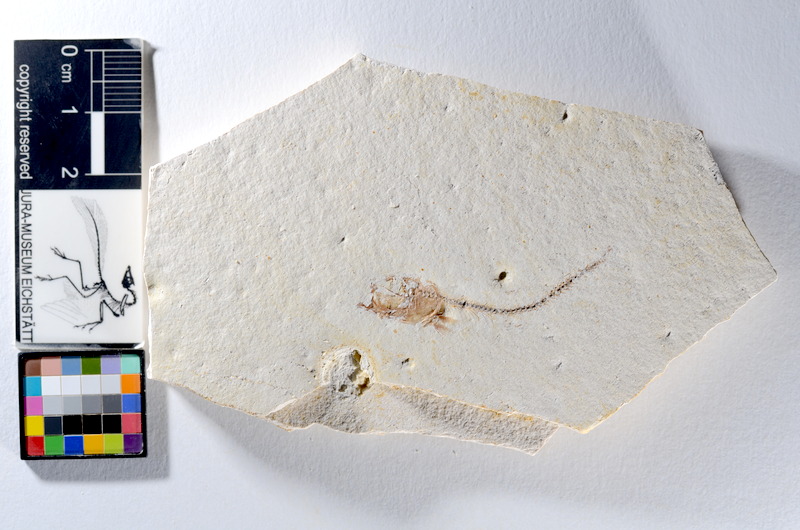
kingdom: Animalia
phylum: Chordata
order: Salmoniformes
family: Orthogonikleithridae
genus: Orthogonikleithrus
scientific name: Orthogonikleithrus hoelli
